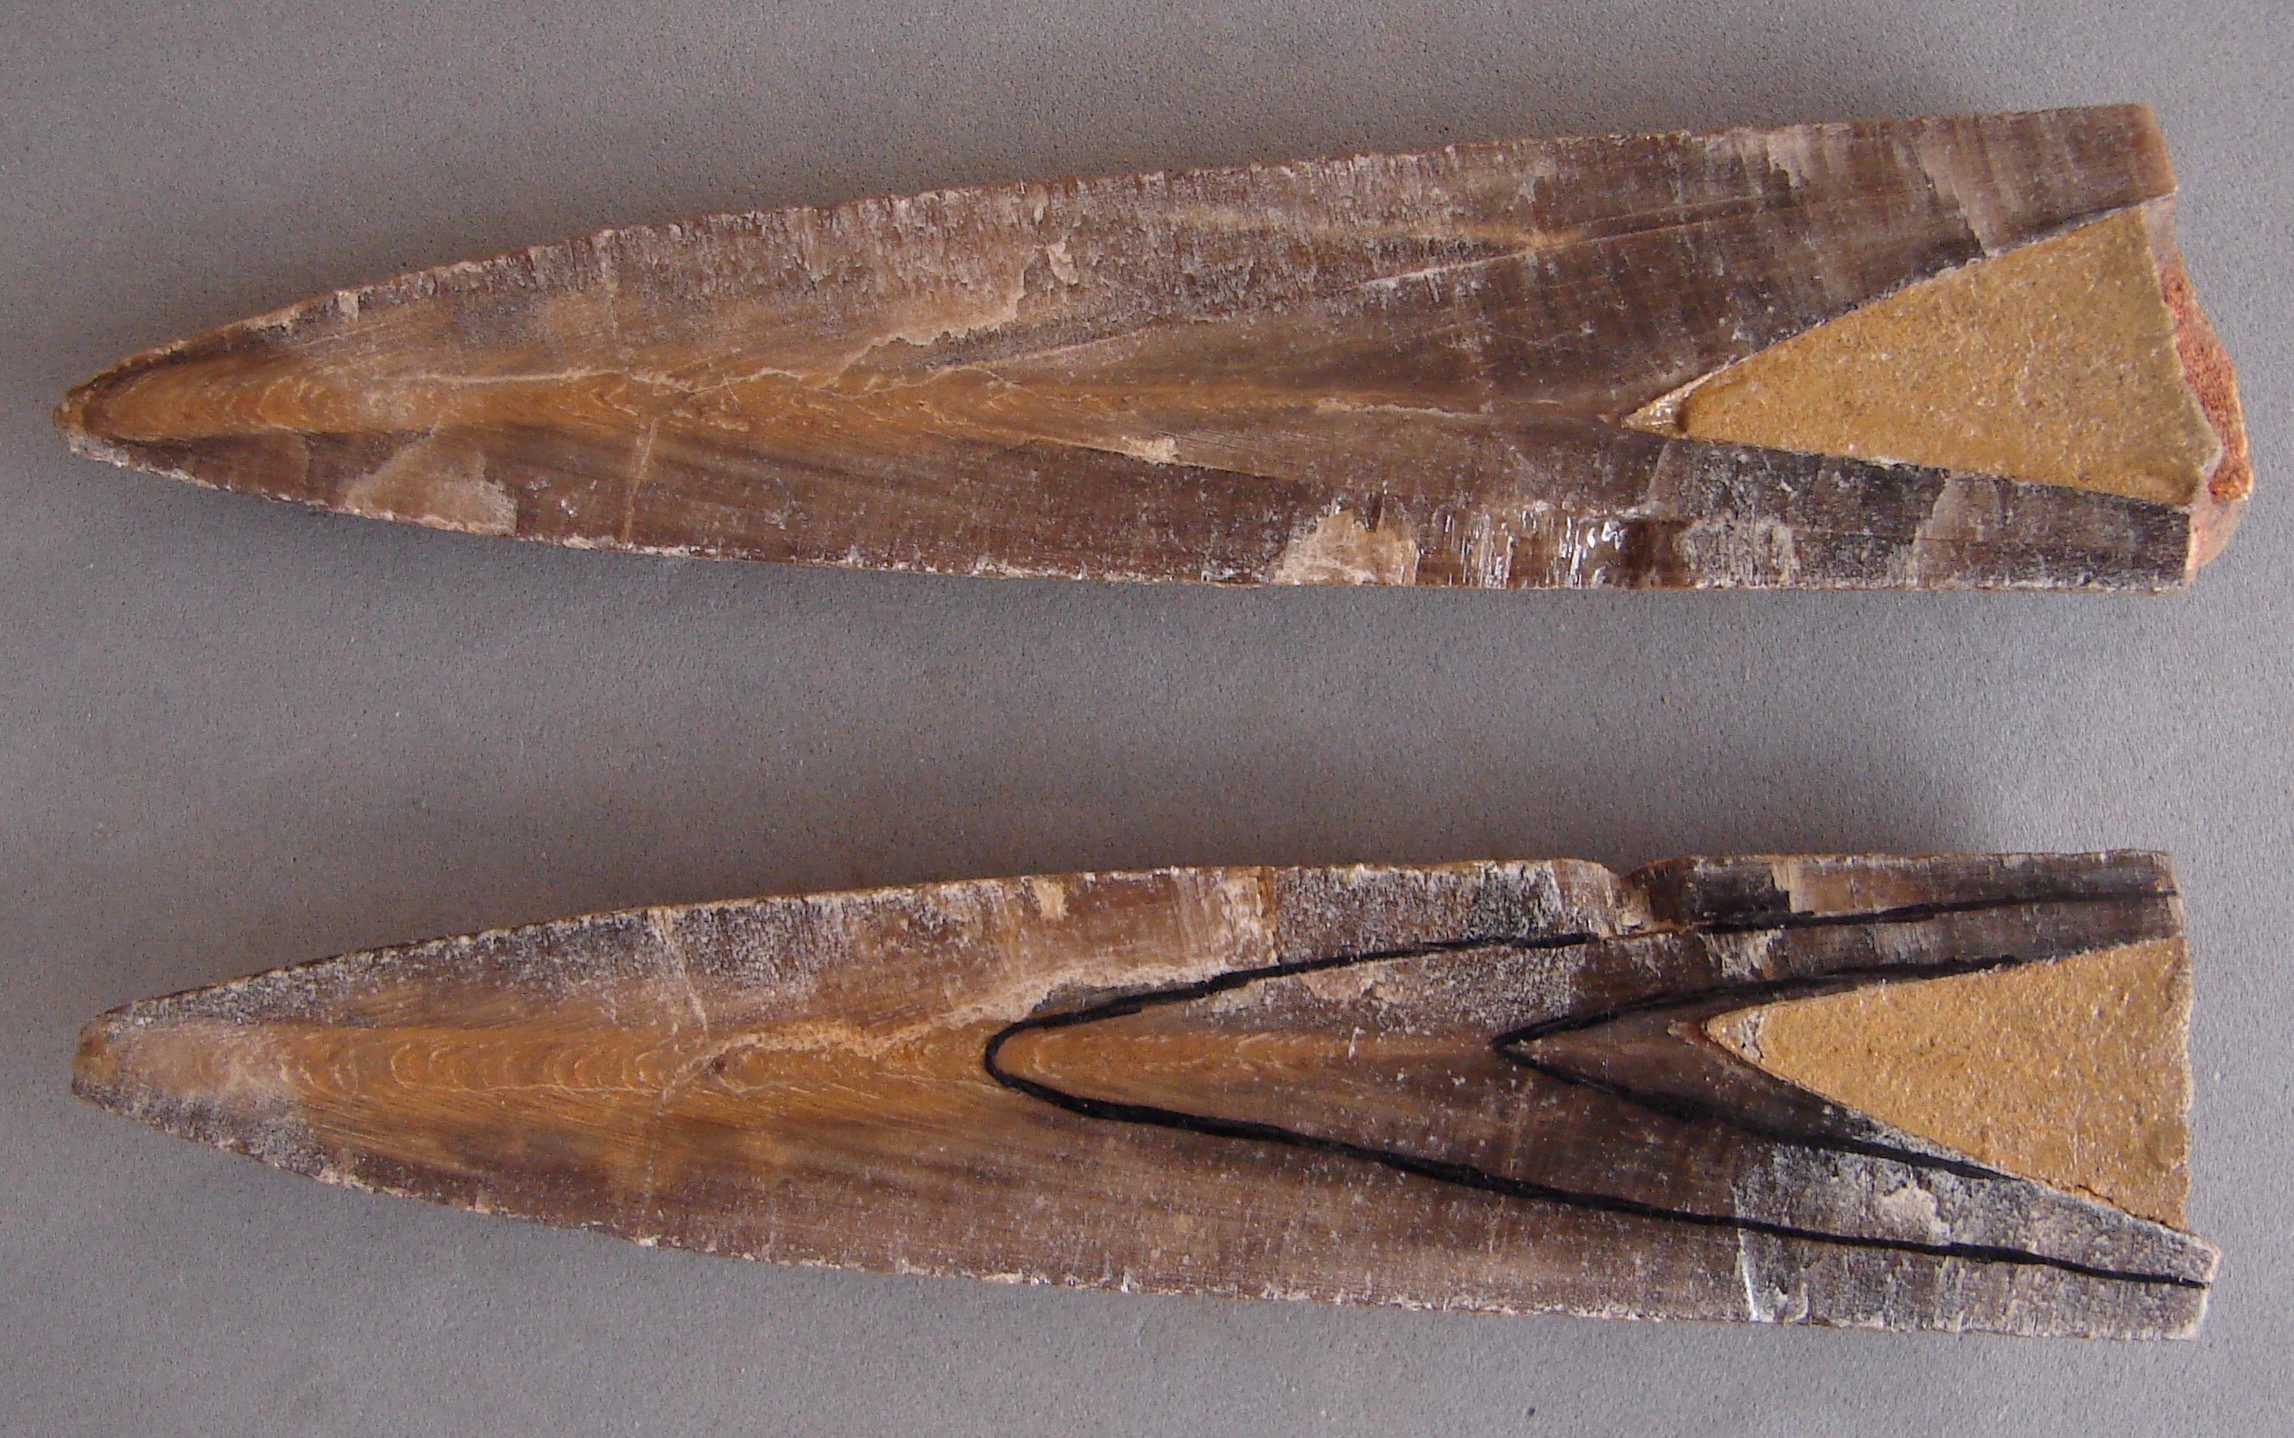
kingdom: Animalia
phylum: Mollusca
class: Cephalopoda
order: Belemnitida
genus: Mesoteuthis
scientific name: Mesoteuthis
